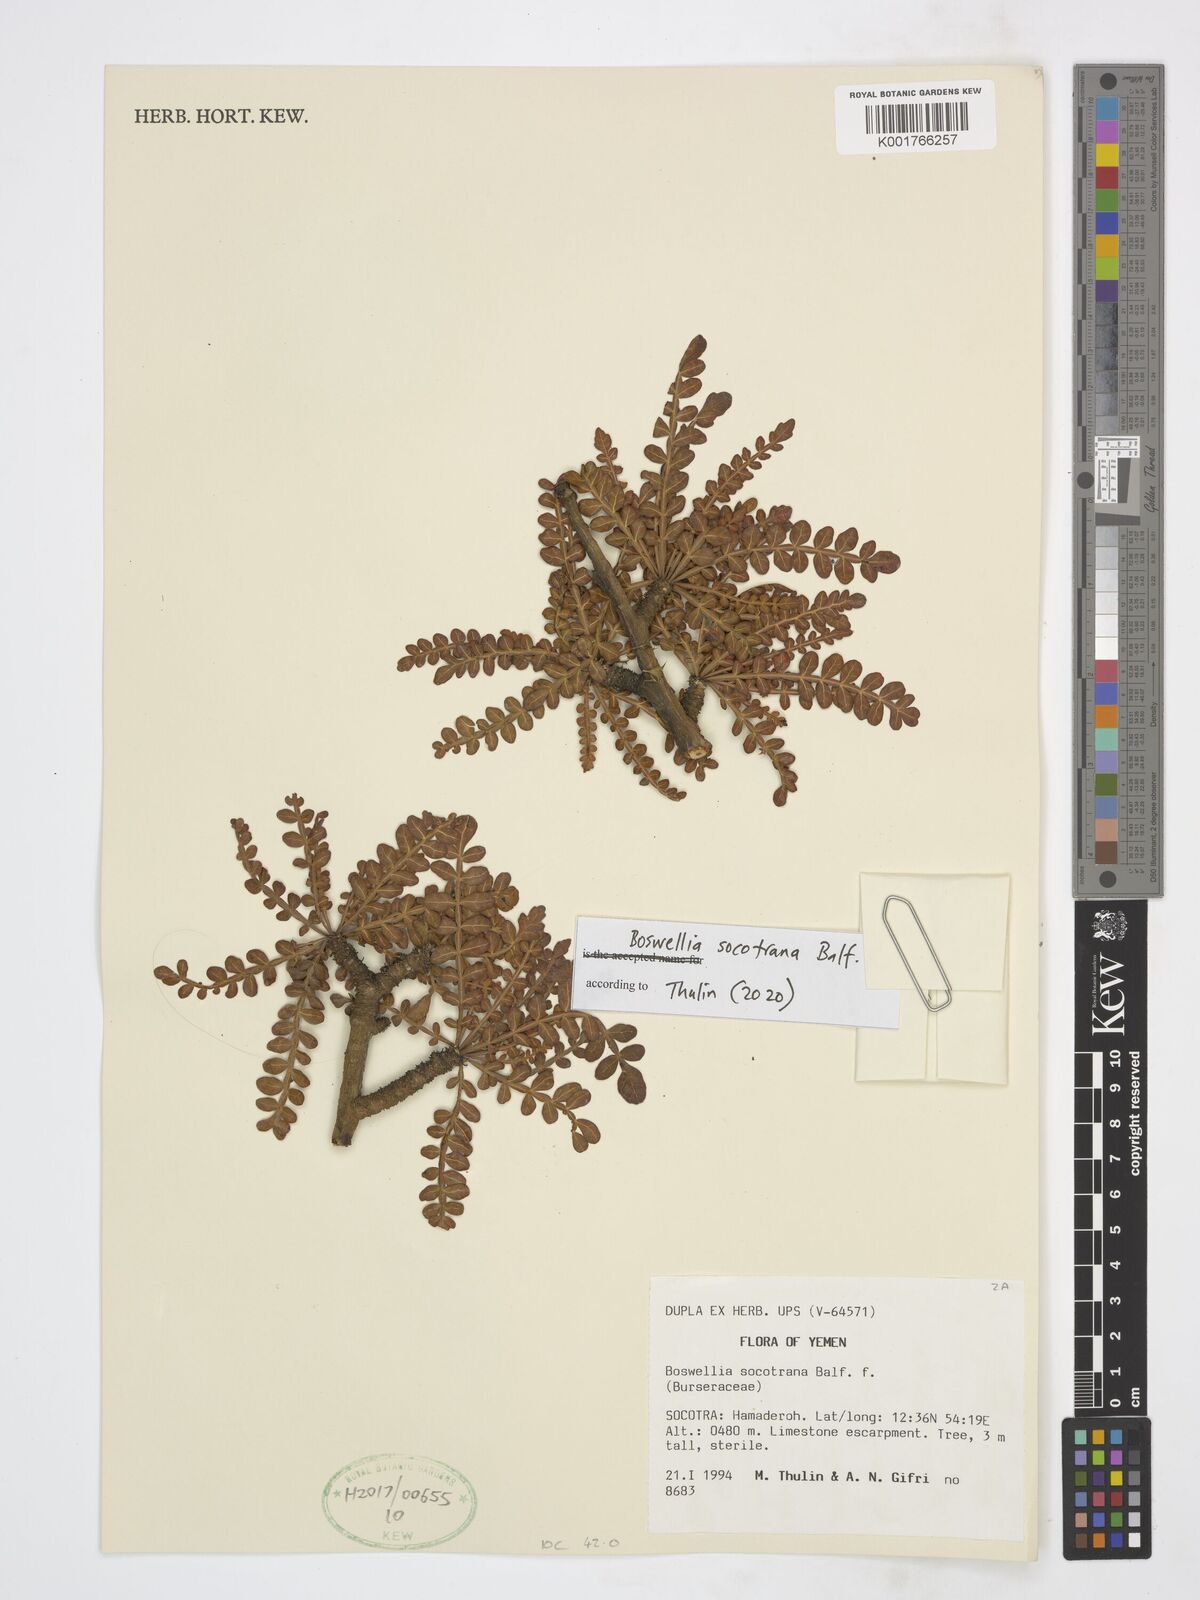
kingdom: Plantae
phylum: Tracheophyta
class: Magnoliopsida
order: Sapindales
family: Burseraceae
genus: Boswellia
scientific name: Boswellia socotrana
